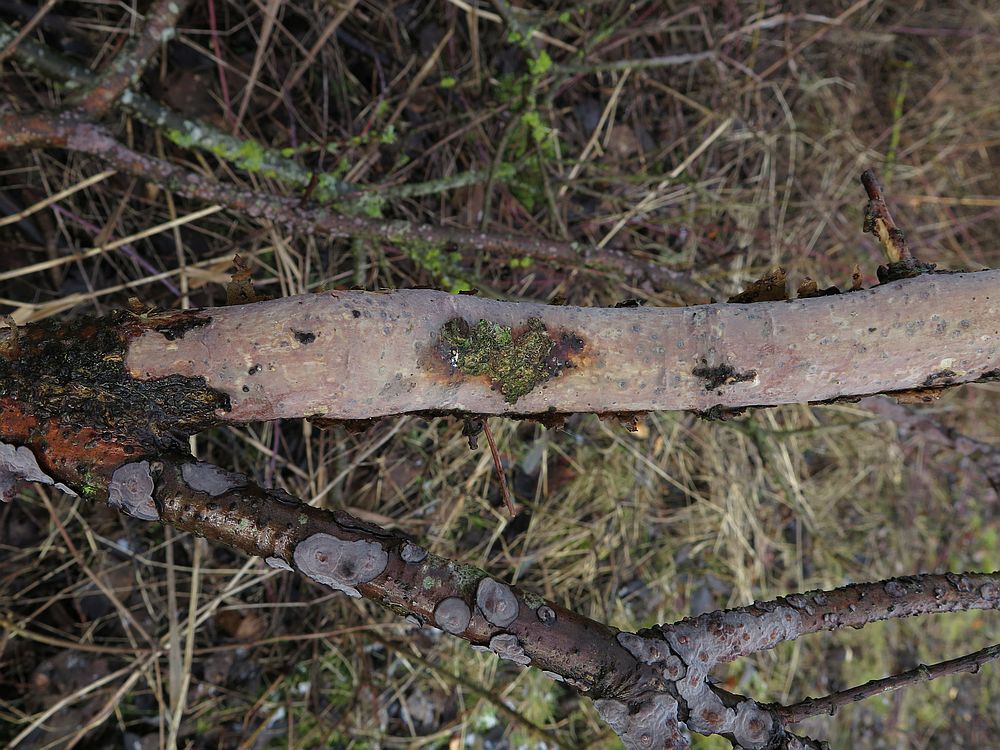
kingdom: Fungi
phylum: Basidiomycota
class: Agaricomycetes
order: Corticiales
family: Vuilleminiaceae
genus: Vuilleminia
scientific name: Vuilleminia comedens
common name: almindelig barksprænger
